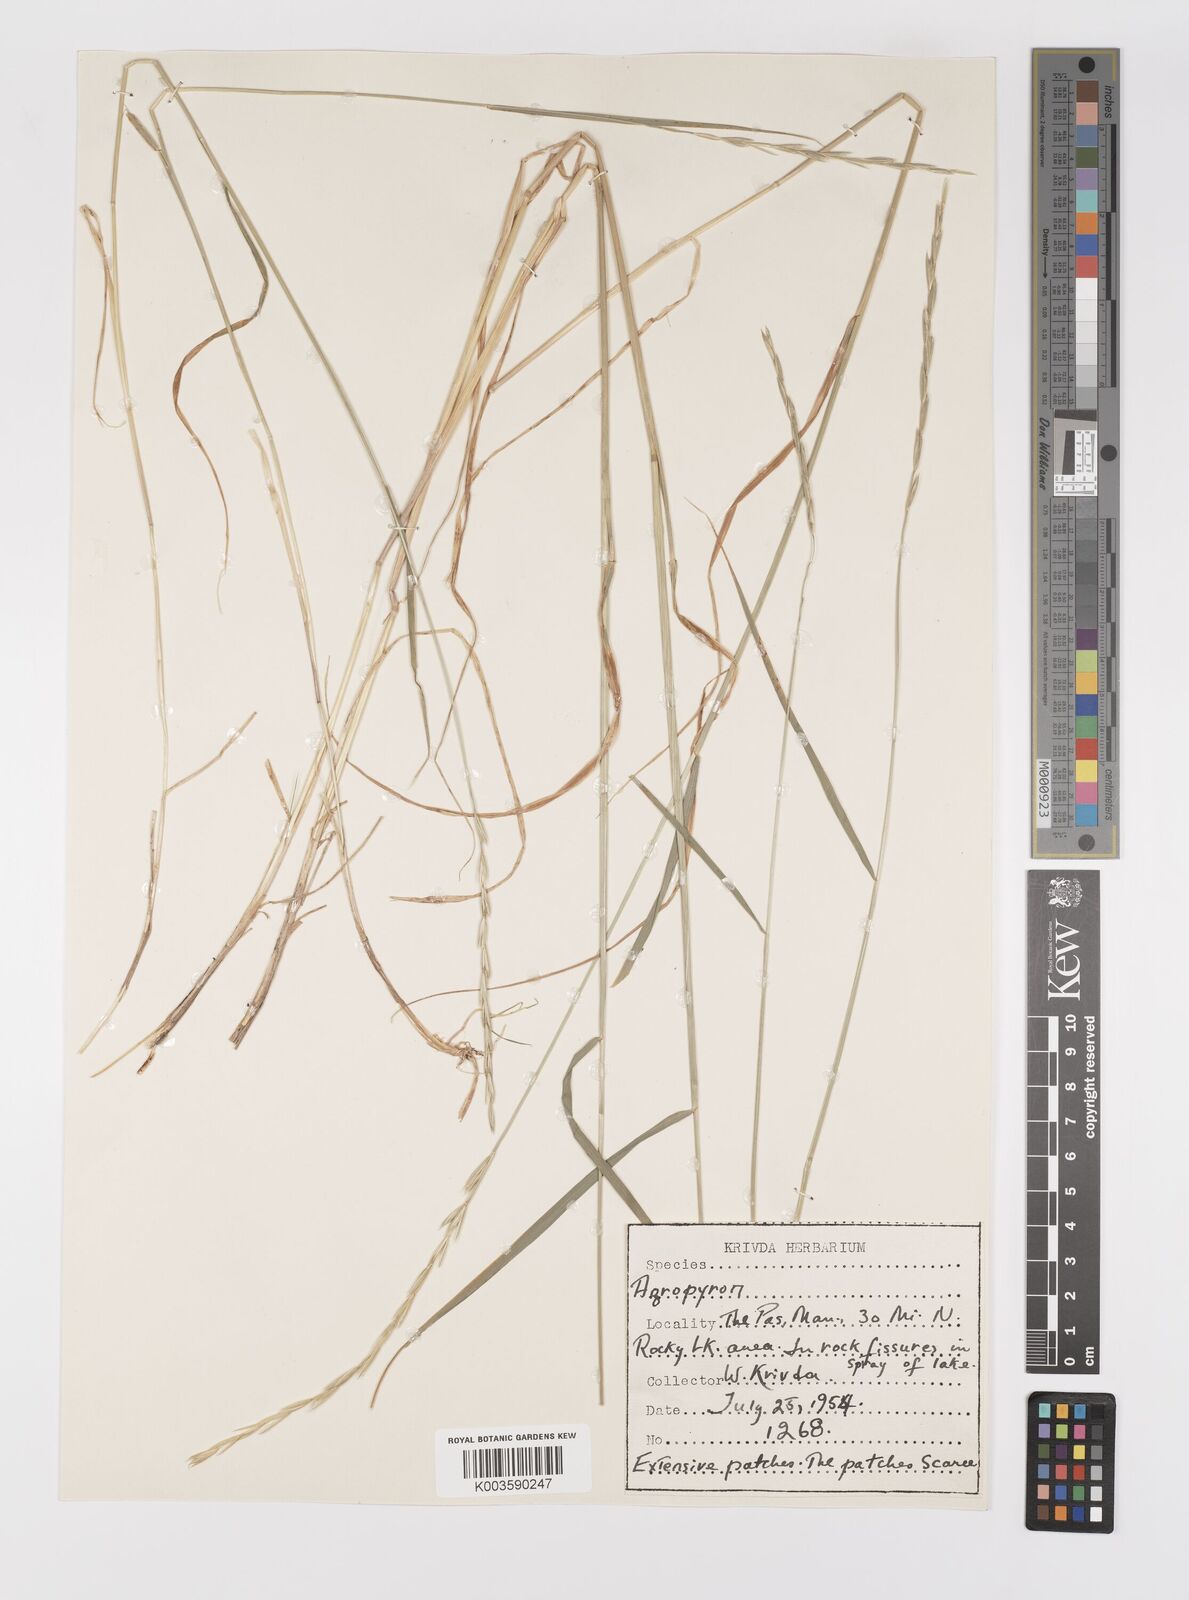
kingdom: Plantae
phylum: Tracheophyta
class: Liliopsida
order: Poales
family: Poaceae
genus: Elymus
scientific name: Elymus
